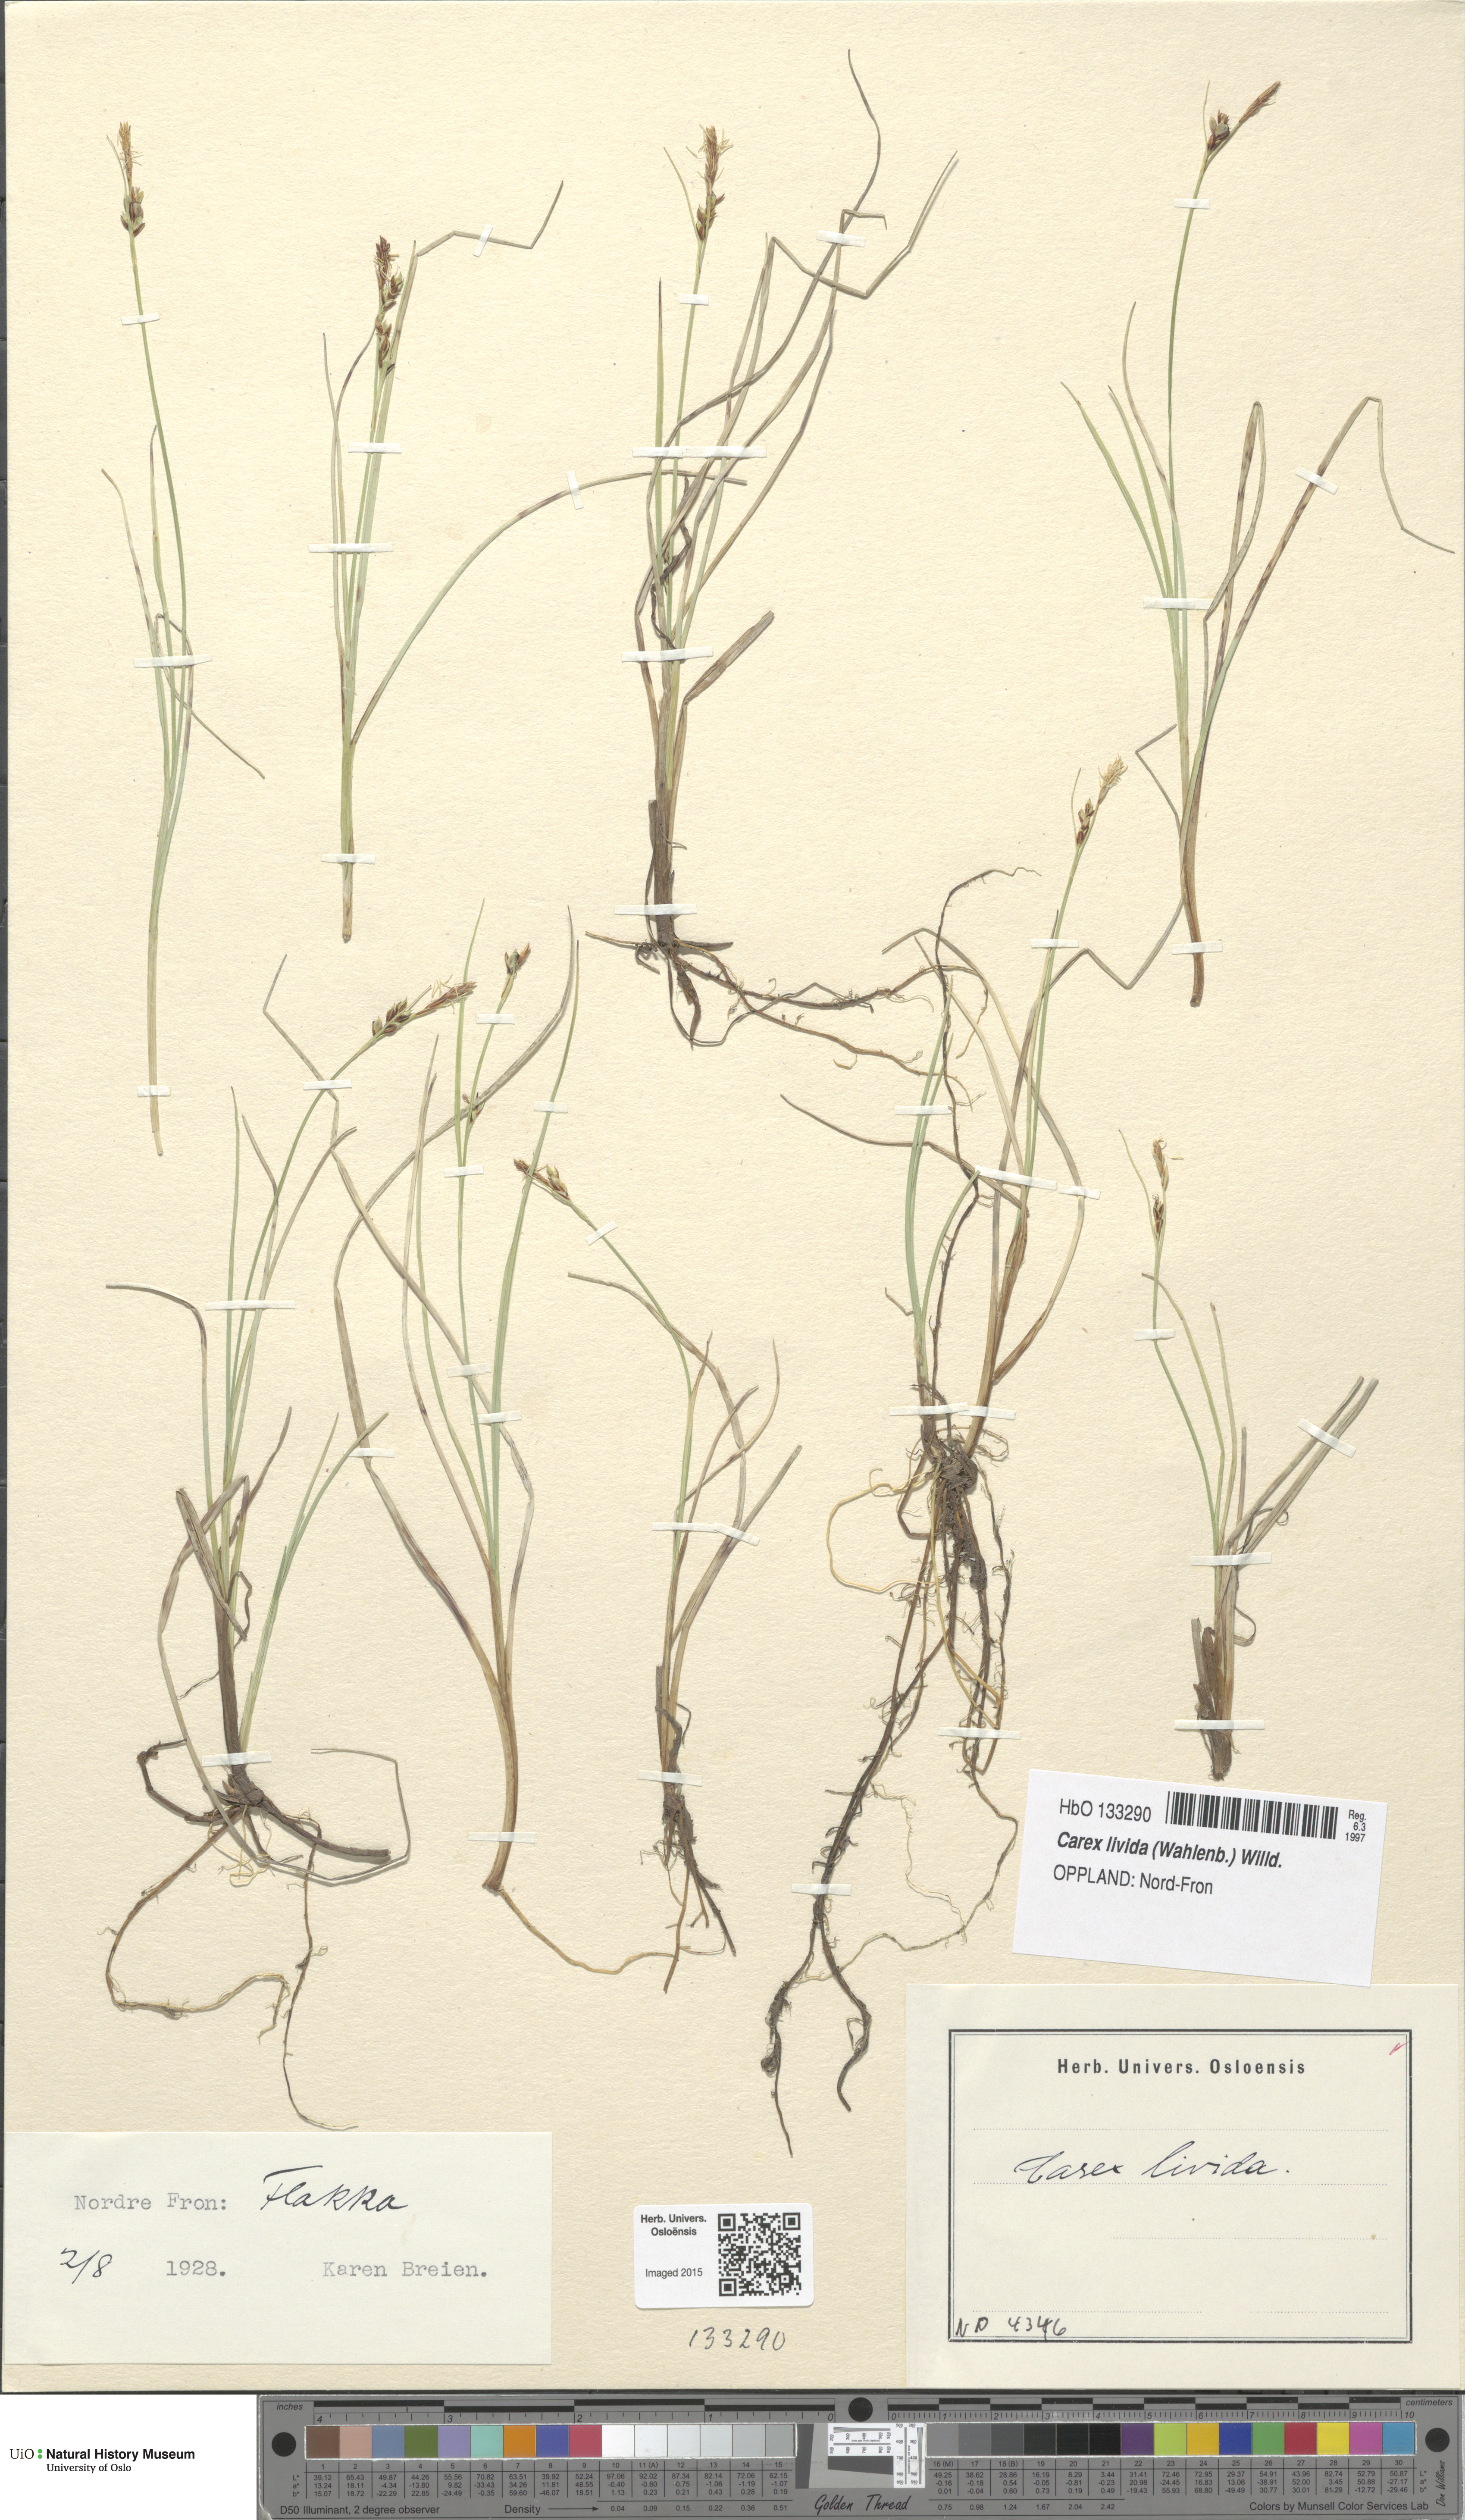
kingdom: Plantae
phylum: Tracheophyta
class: Liliopsida
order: Poales
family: Cyperaceae
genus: Carex
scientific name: Carex livida
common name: Livid sedge
